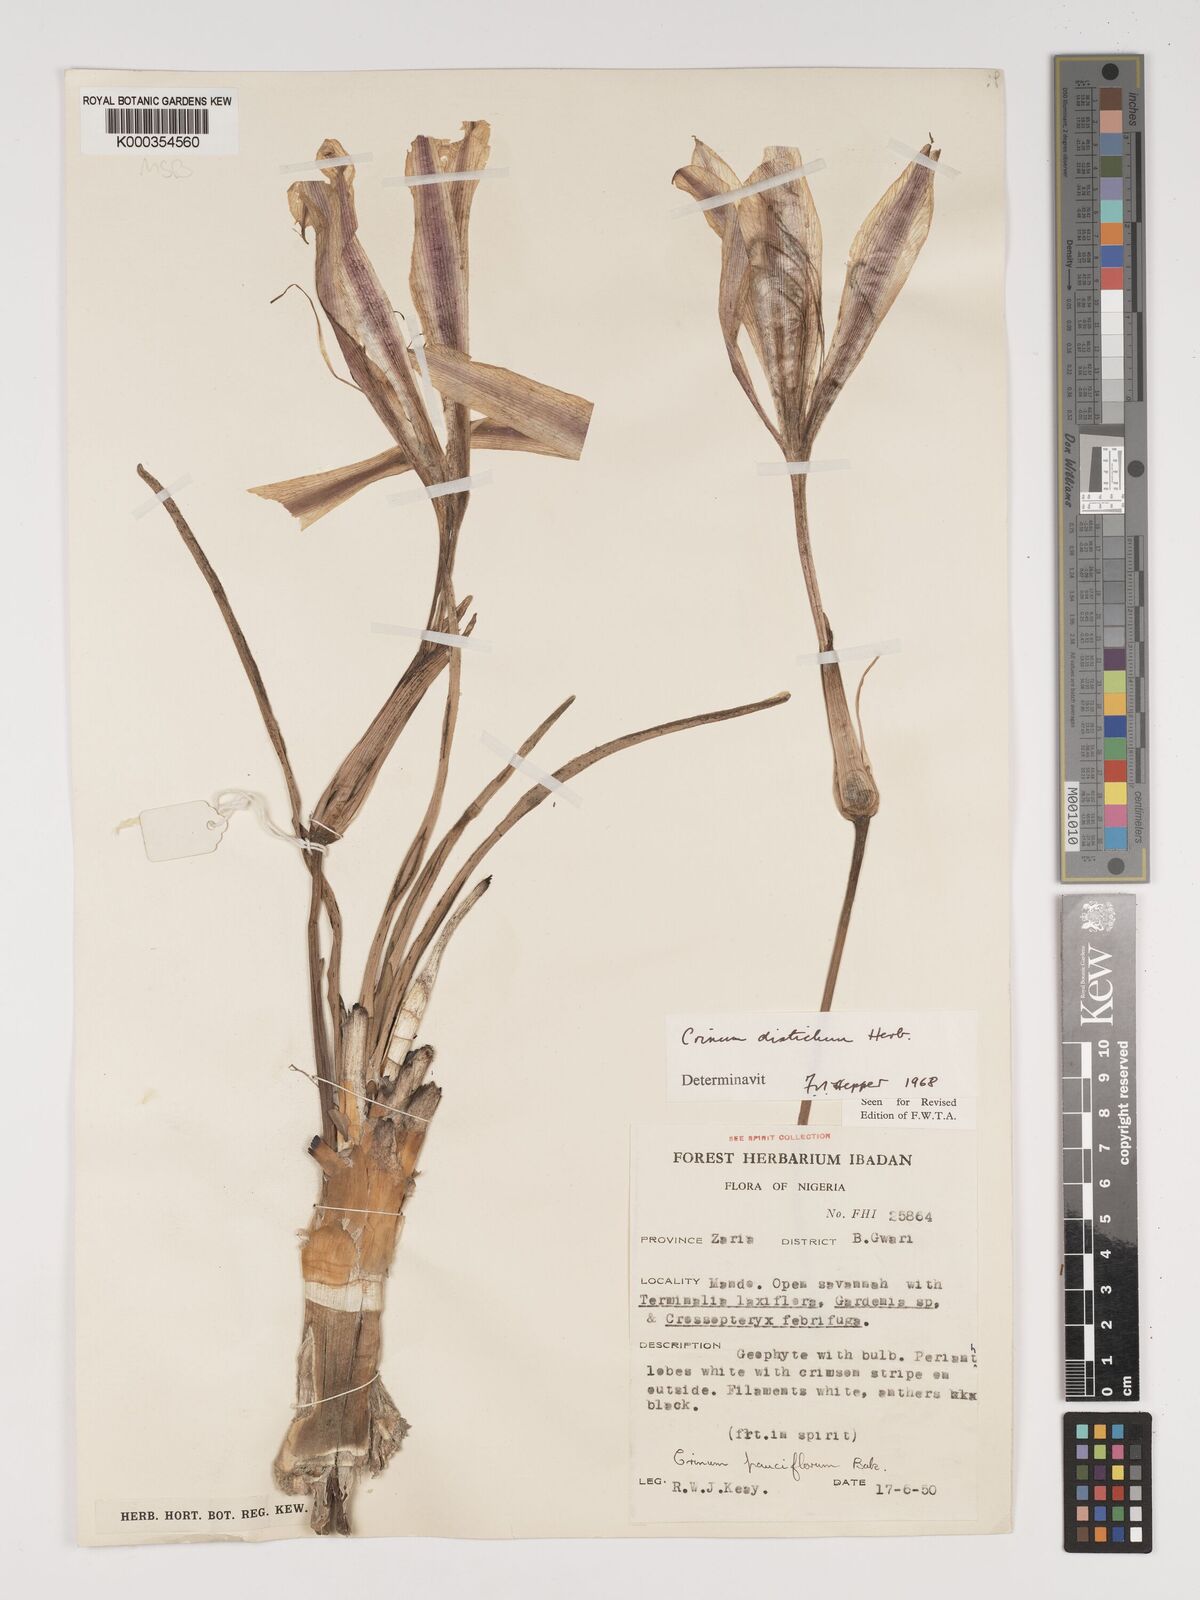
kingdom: Plantae
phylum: Tracheophyta
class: Liliopsida
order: Asparagales
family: Amaryllidaceae
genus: Crinum
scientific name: Crinum zeylanicum
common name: Ceylon swamplily
